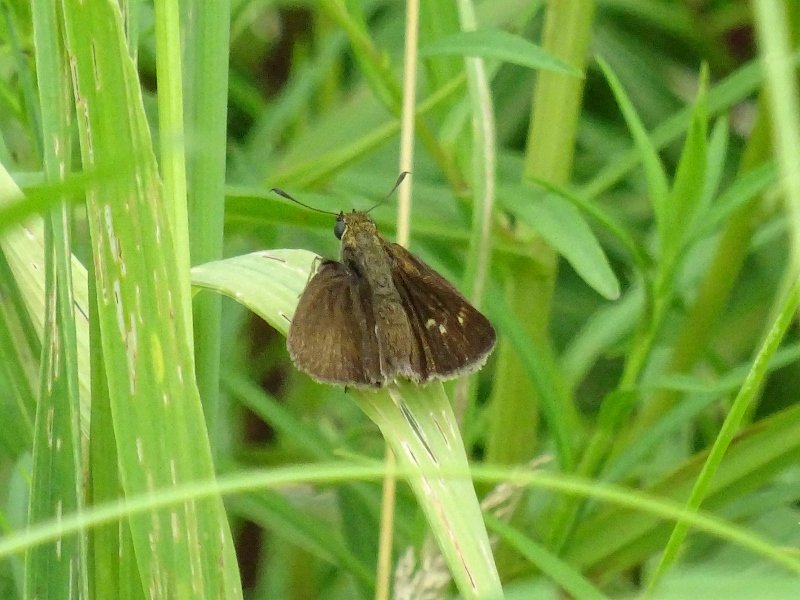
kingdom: Animalia
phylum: Arthropoda
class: Insecta
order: Lepidoptera
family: Hesperiidae
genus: Polites
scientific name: Polites egeremet
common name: Northern Broken-Dash
